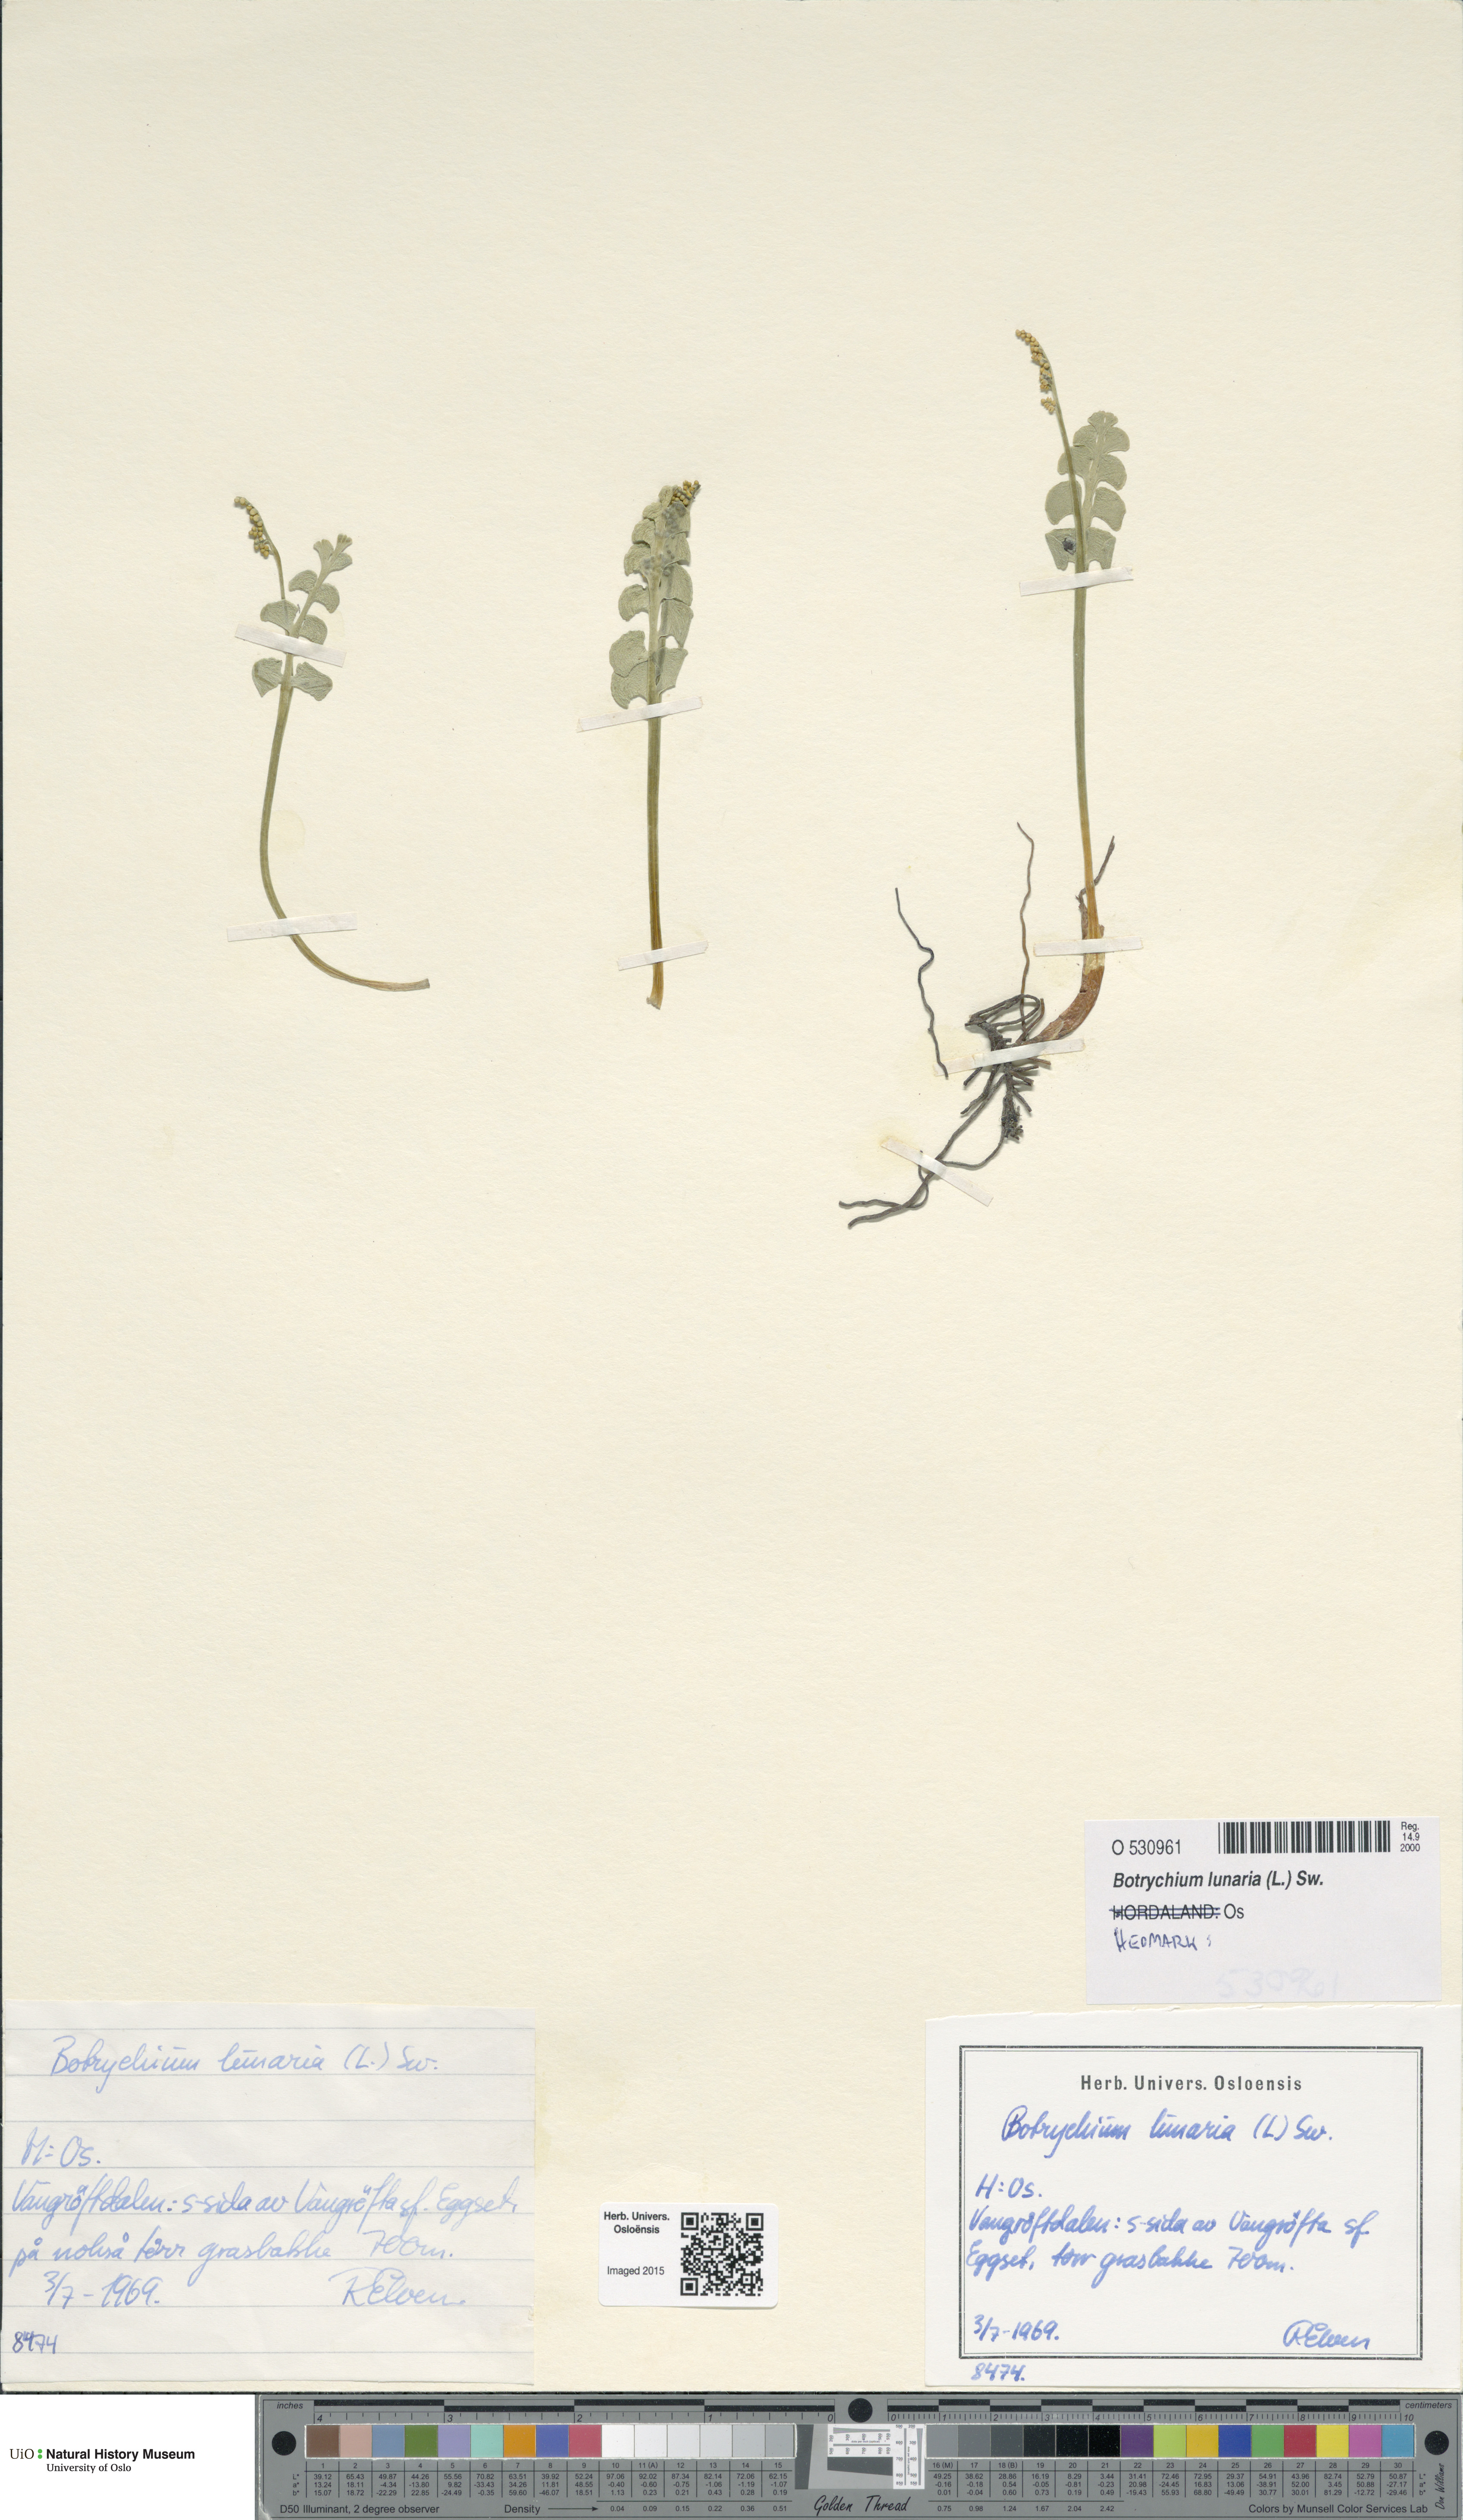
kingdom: Plantae
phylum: Tracheophyta
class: Polypodiopsida
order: Ophioglossales
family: Ophioglossaceae
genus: Botrychium
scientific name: Botrychium lunaria
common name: Moonwort
